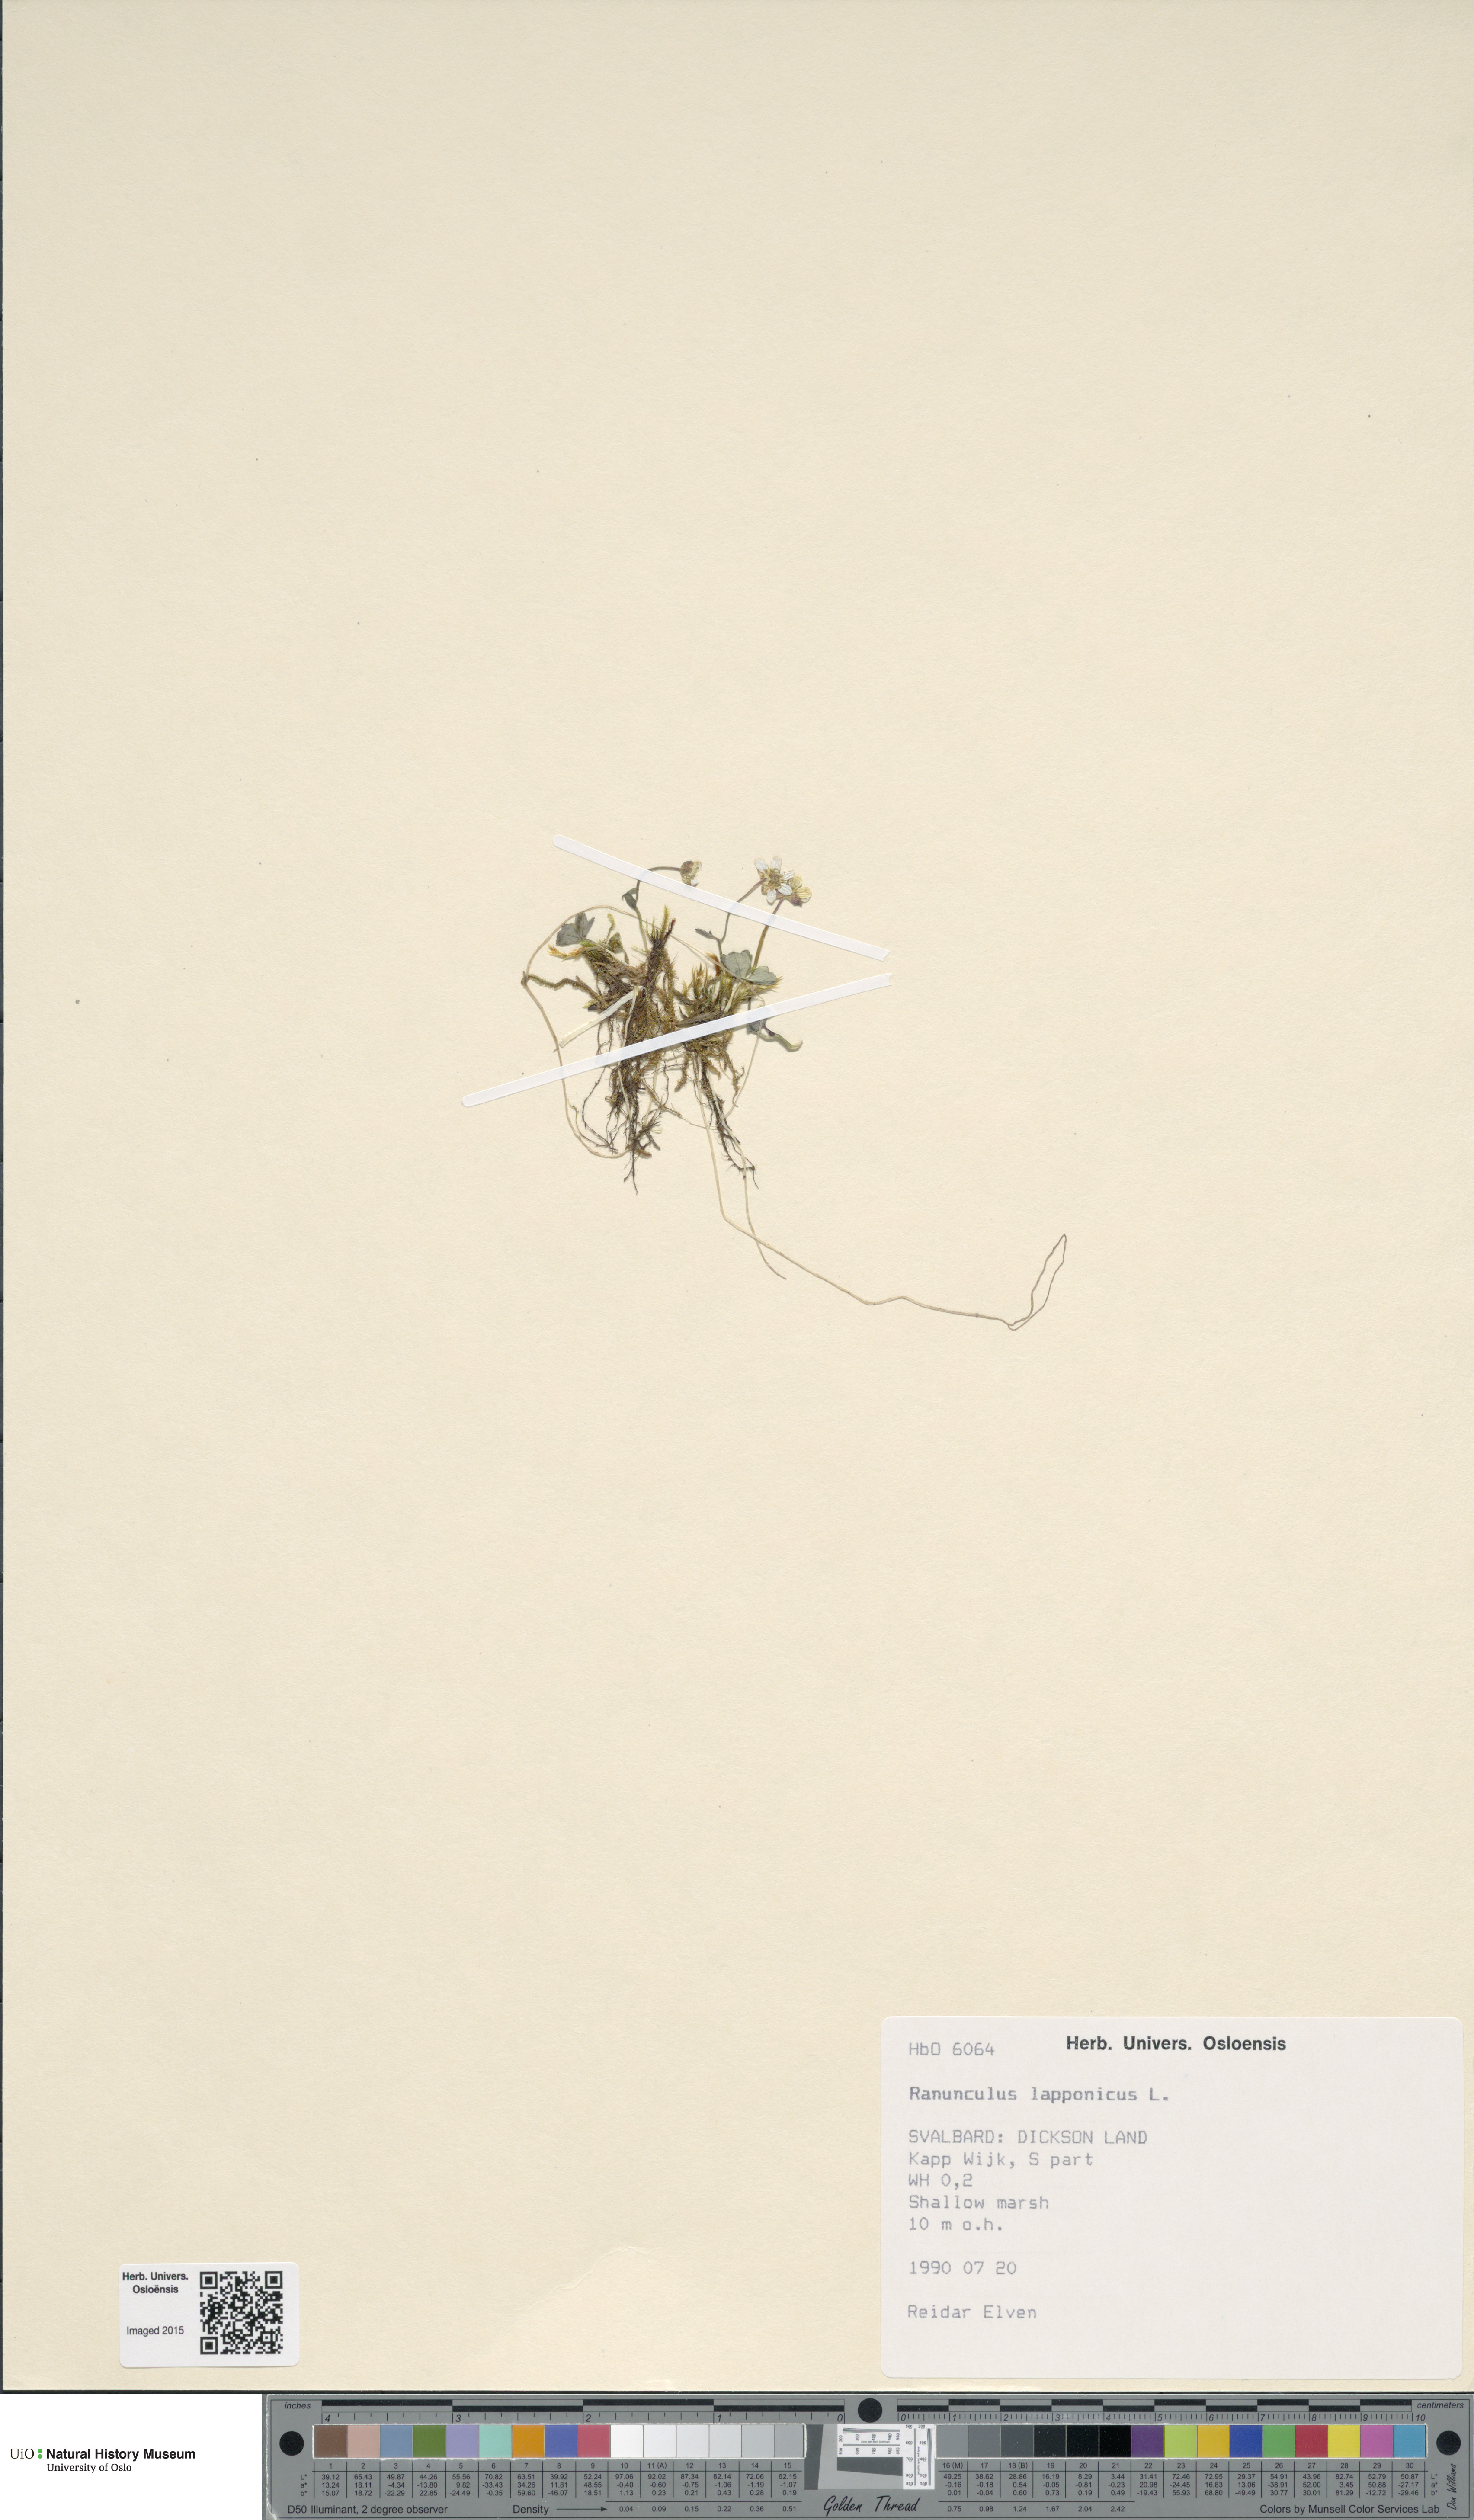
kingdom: Plantae
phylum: Tracheophyta
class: Magnoliopsida
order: Ranunculales
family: Ranunculaceae
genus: Coptidium
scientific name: Coptidium lapponicum
